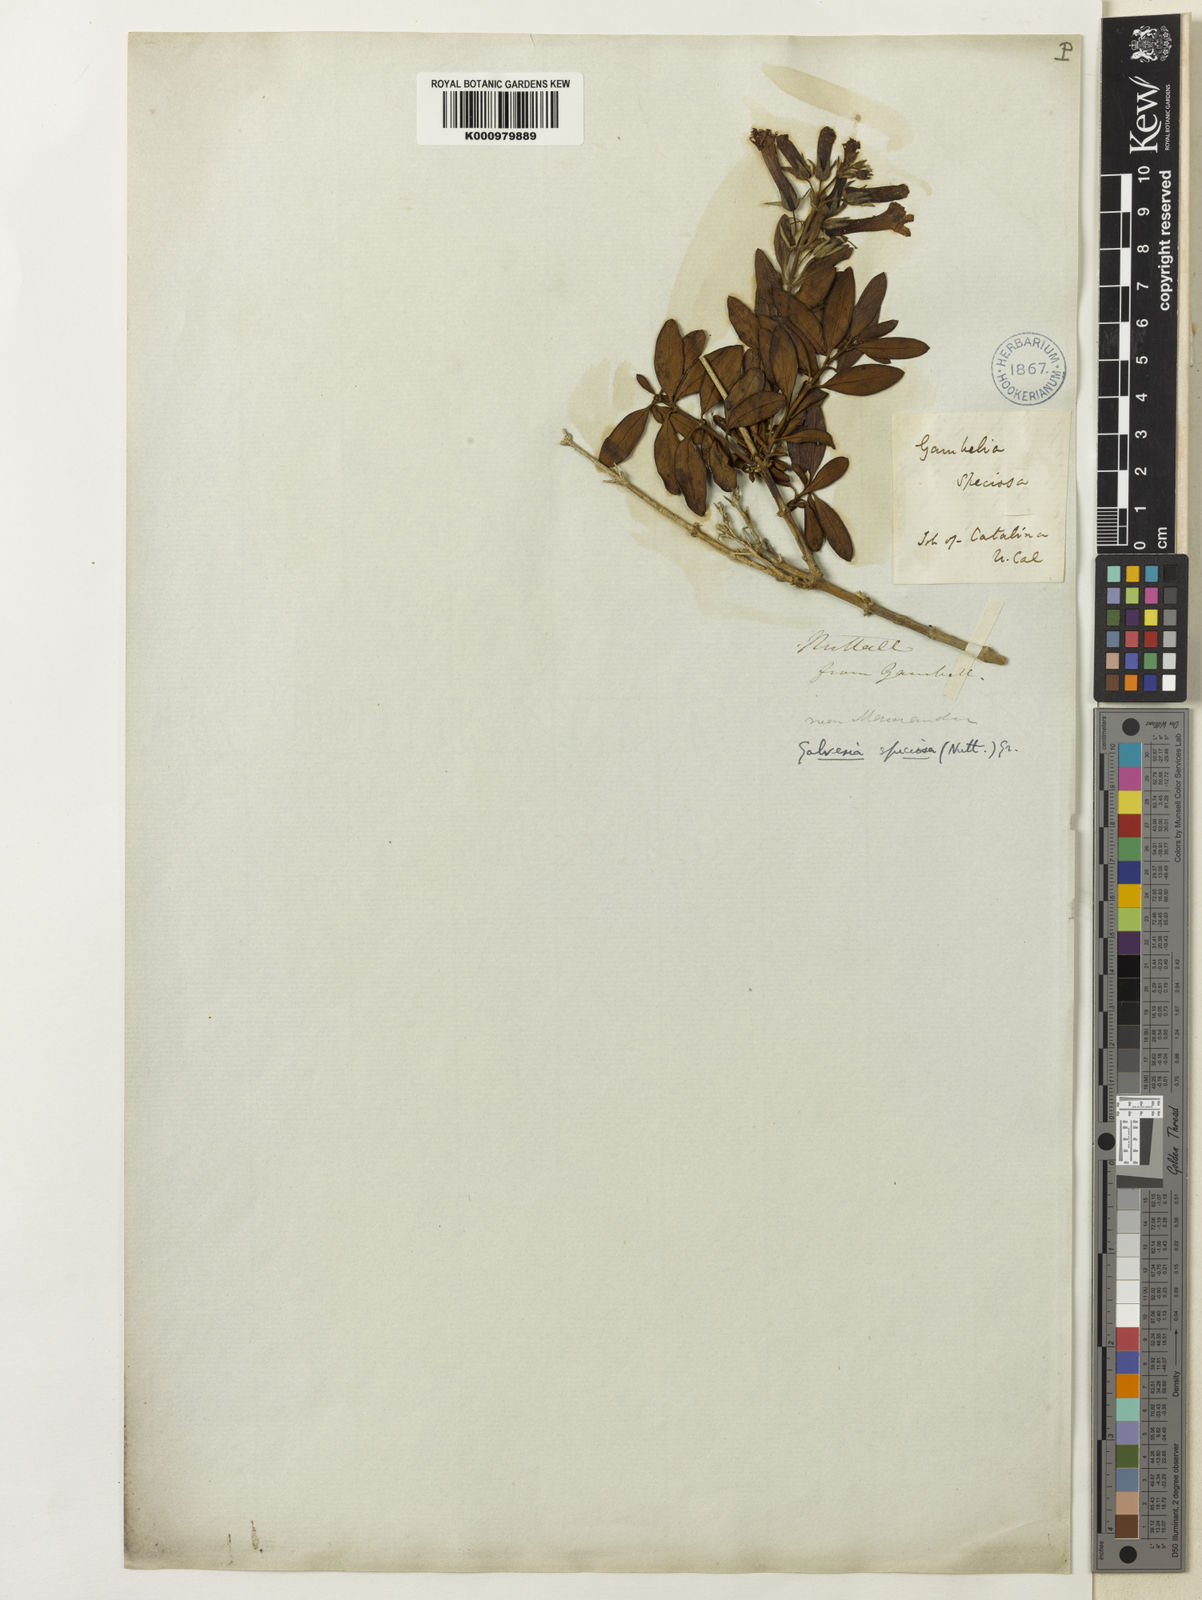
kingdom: Plantae
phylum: Tracheophyta
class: Magnoliopsida
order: Lamiales
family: Plantaginaceae
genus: Gambelia
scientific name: Gambelia speciosa
